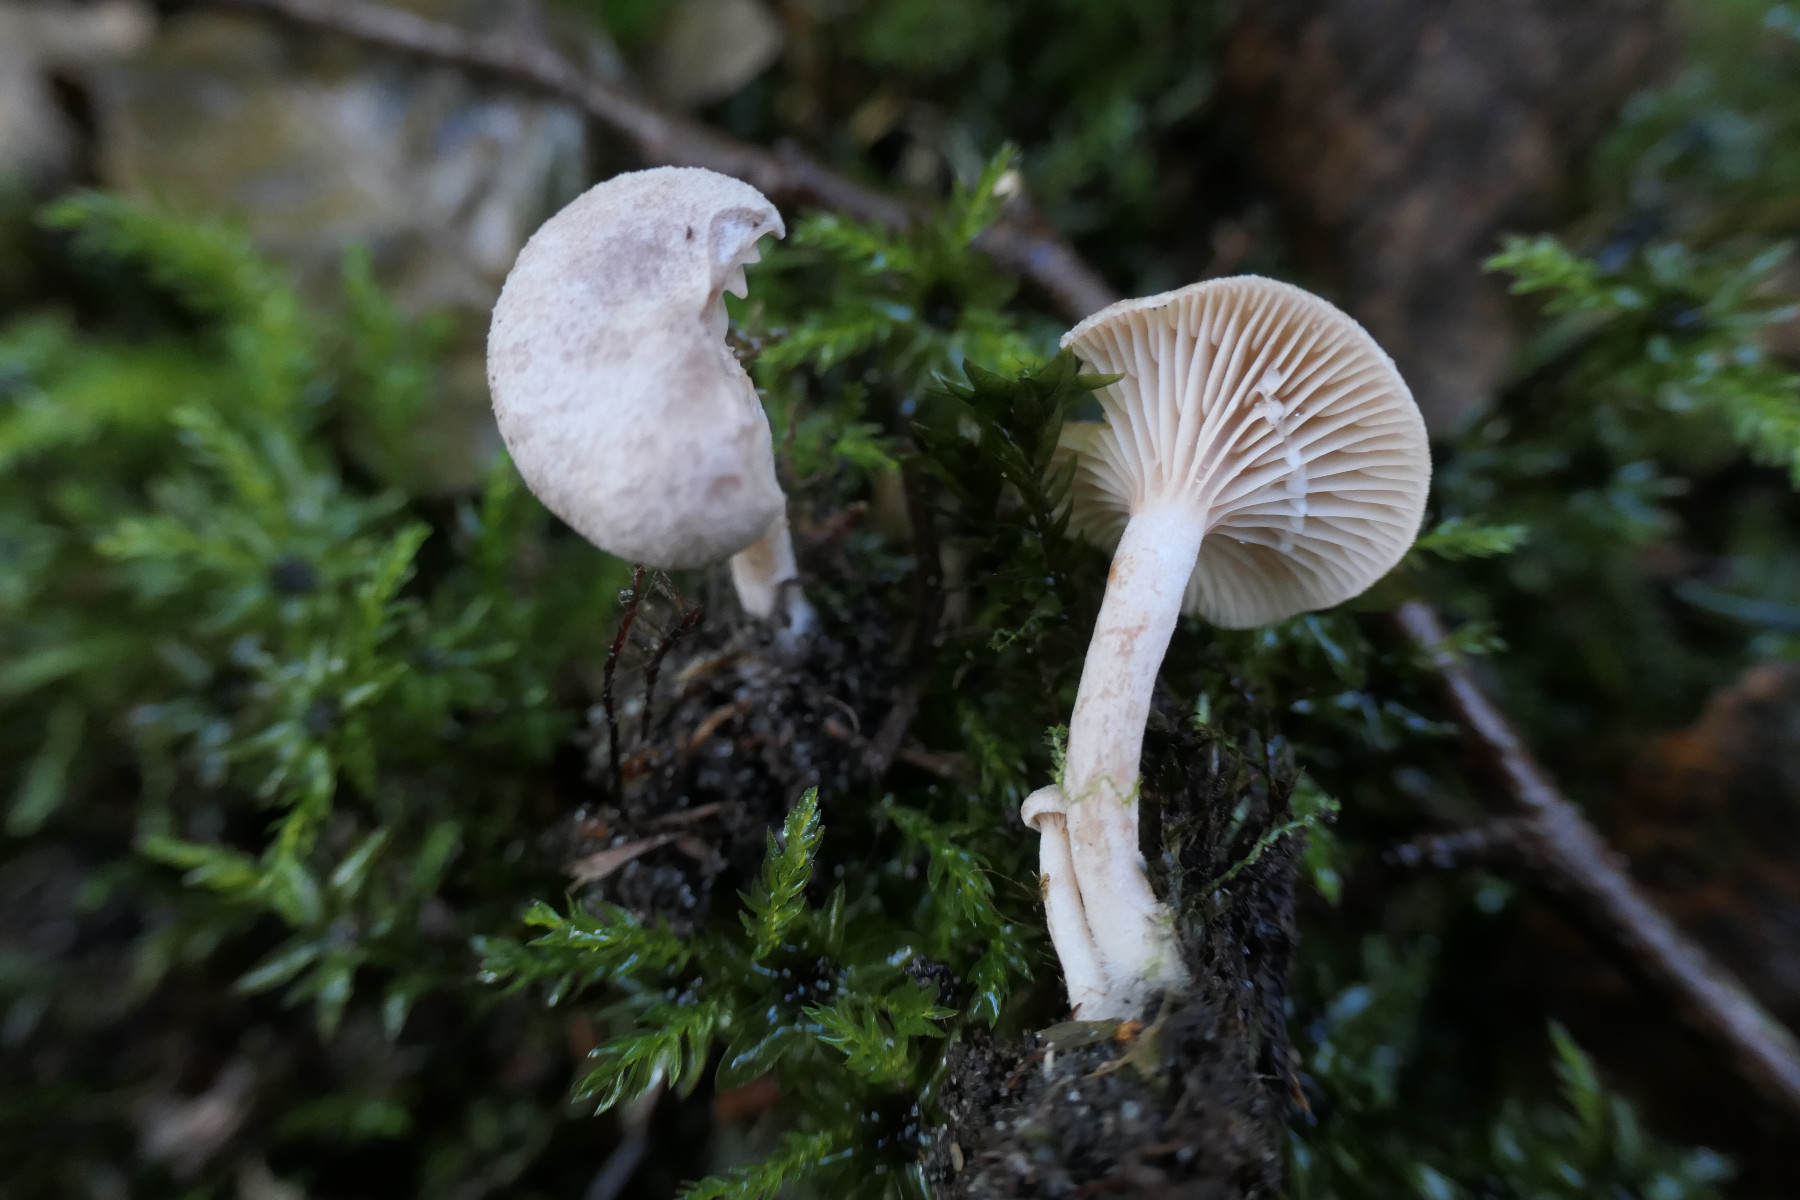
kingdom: Fungi
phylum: Basidiomycota
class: Agaricomycetes
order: Russulales
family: Russulaceae
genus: Lactarius
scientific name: Lactarius glyciosmus
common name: kokos-mælkehat
